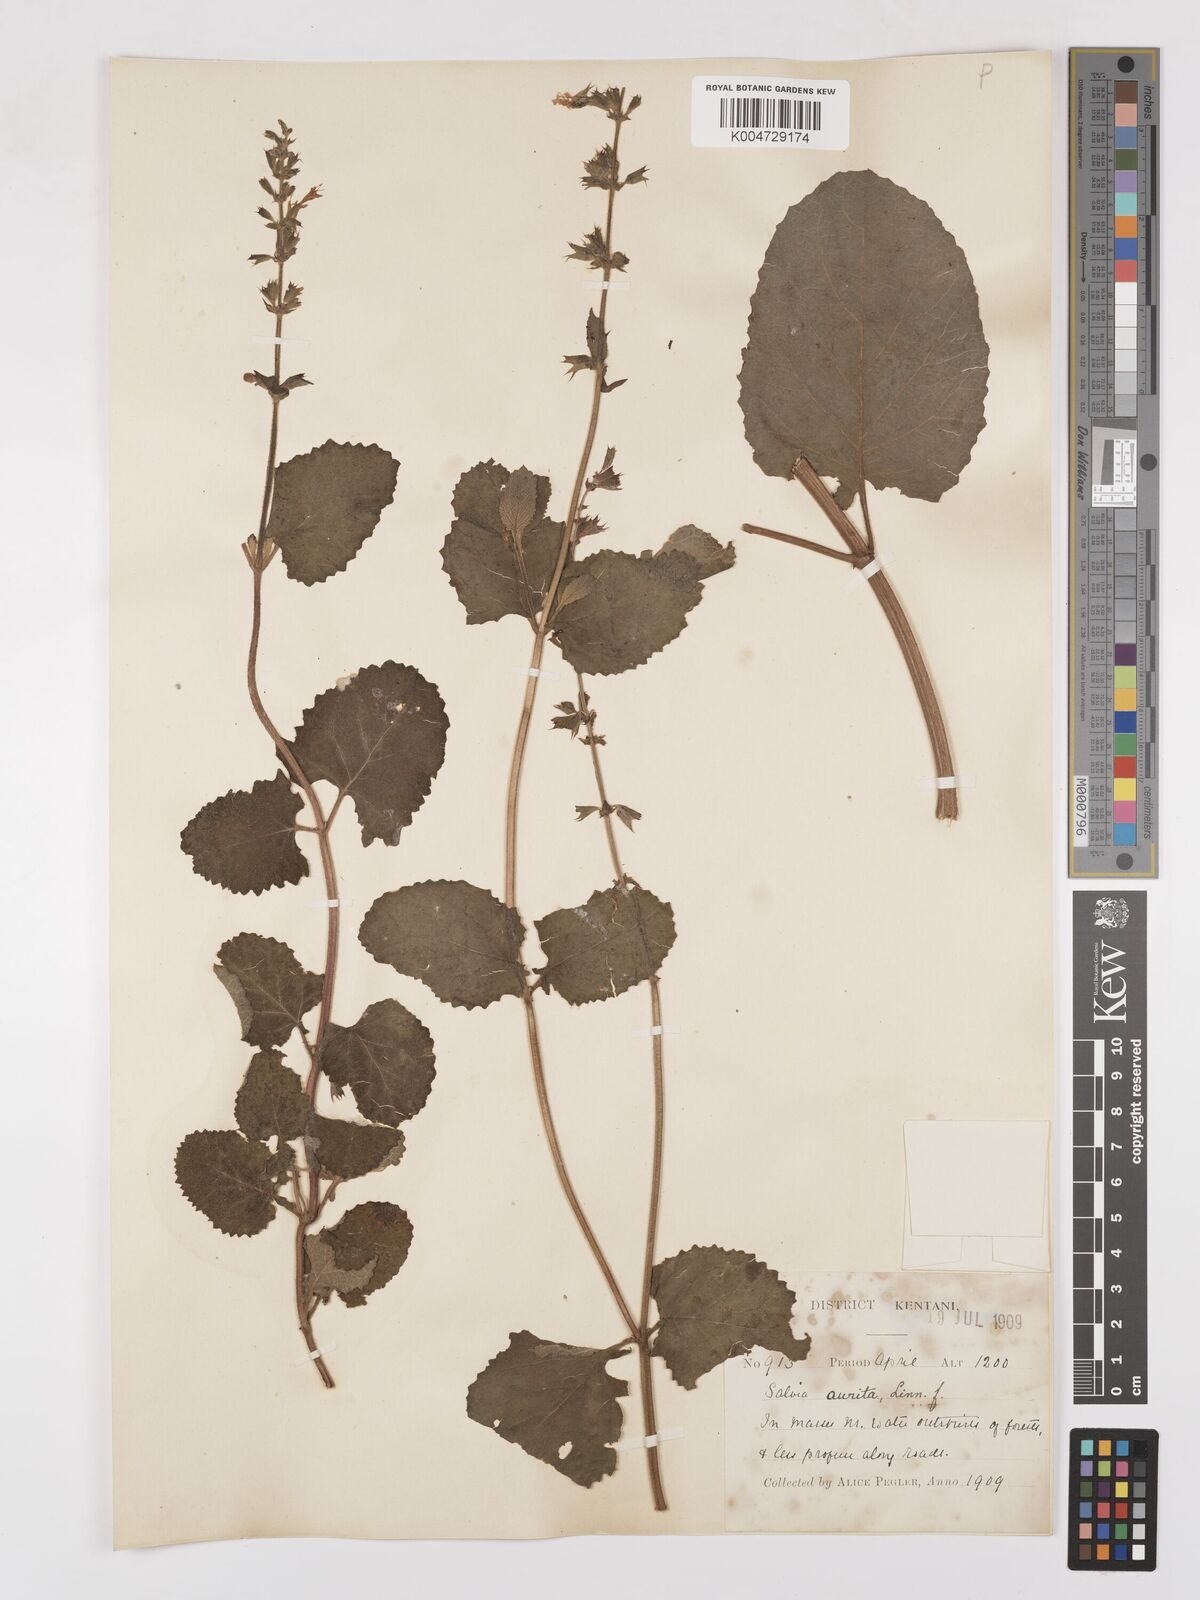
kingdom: Plantae
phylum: Tracheophyta
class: Magnoliopsida
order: Lamiales
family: Lamiaceae
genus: Salvia
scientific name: Salvia aurita
